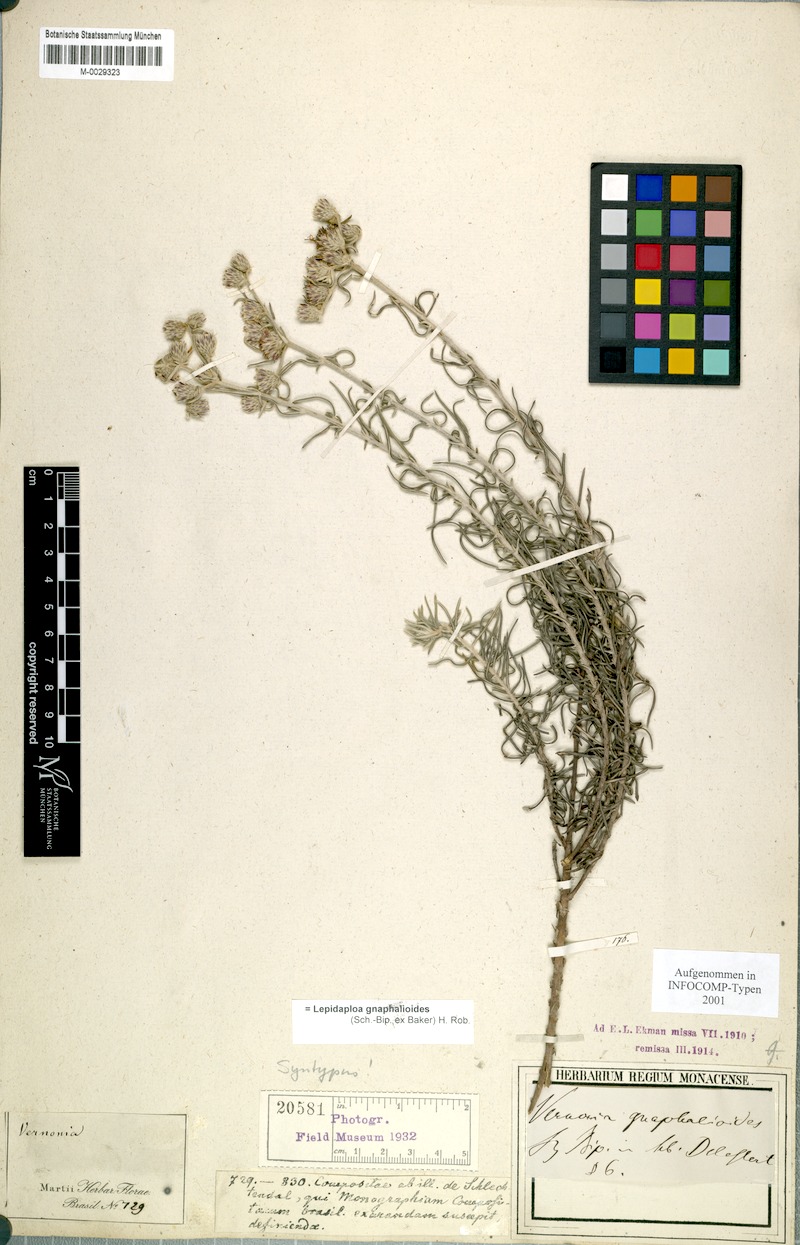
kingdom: Plantae
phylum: Tracheophyta
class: Magnoliopsida
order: Asterales
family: Asteraceae
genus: Lepidaploa
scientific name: Lepidaploa gnaphalioides
